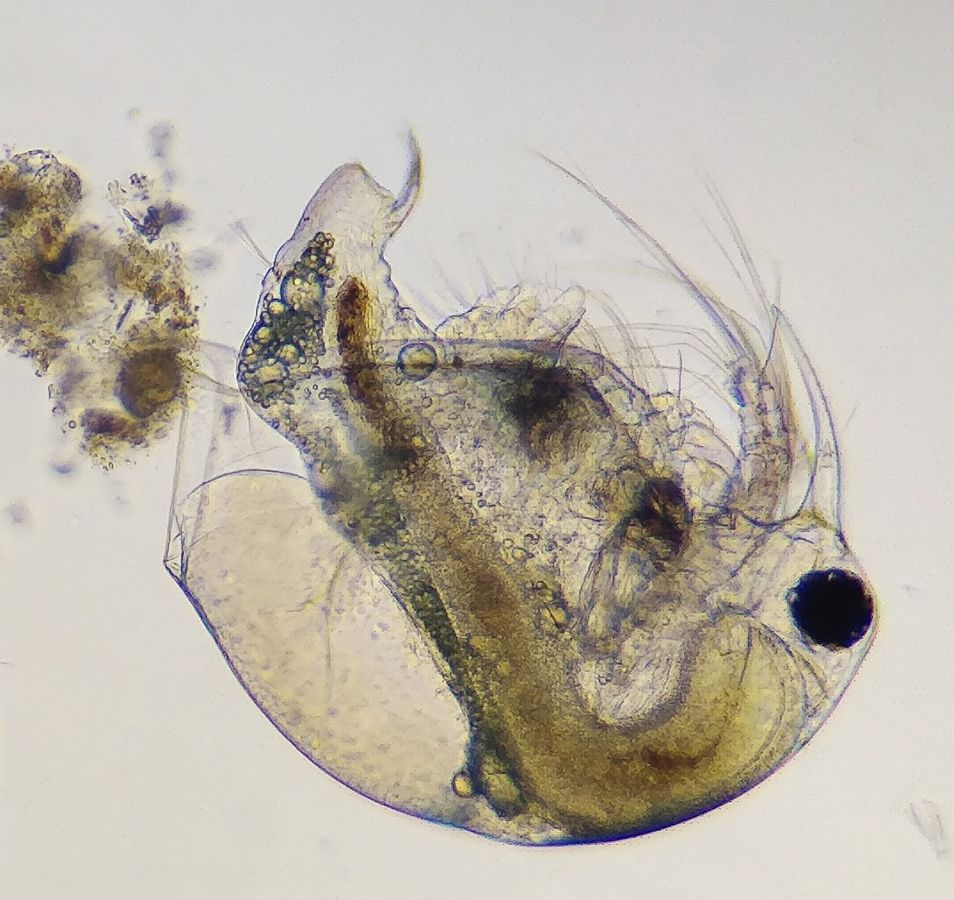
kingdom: Animalia
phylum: Arthropoda
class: Branchiopoda
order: Diplostraca
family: Bosminidae
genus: Bosmina
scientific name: Bosmina longirostris
